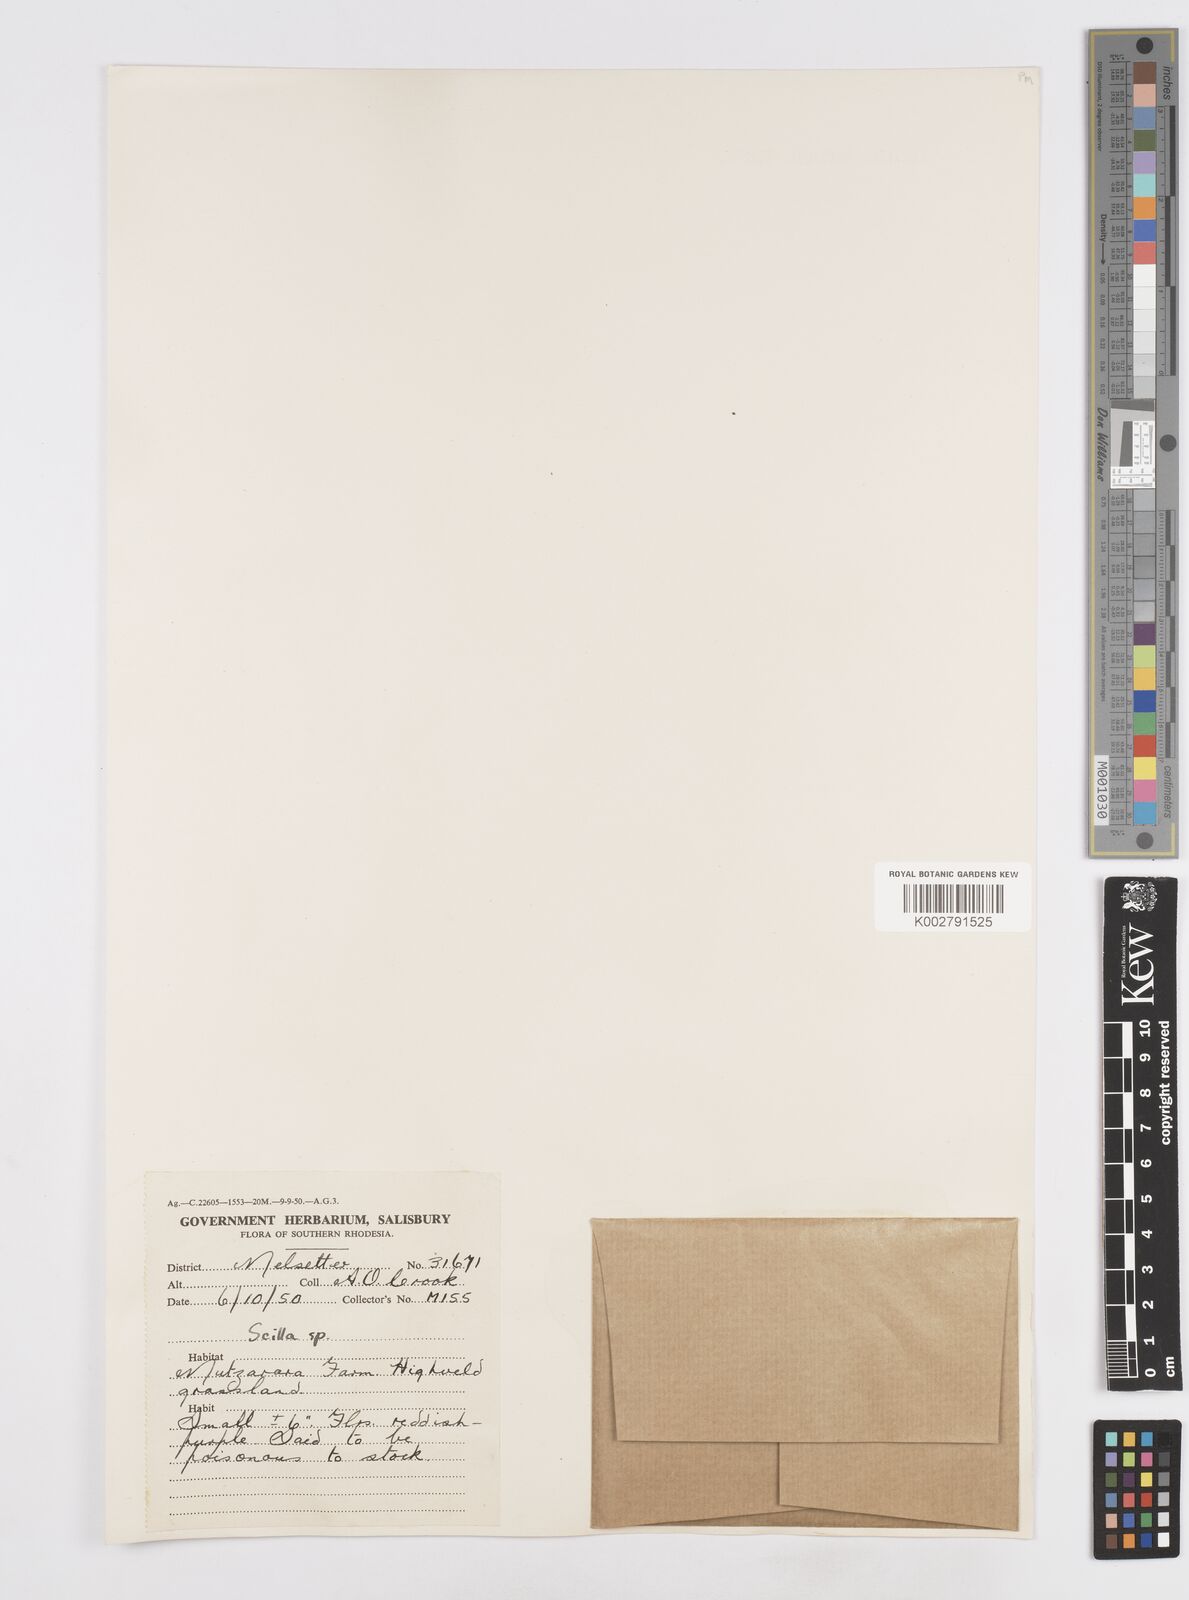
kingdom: Plantae
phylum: Tracheophyta
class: Liliopsida
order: Asparagales
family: Asparagaceae
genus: Scilla
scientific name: Scilla
